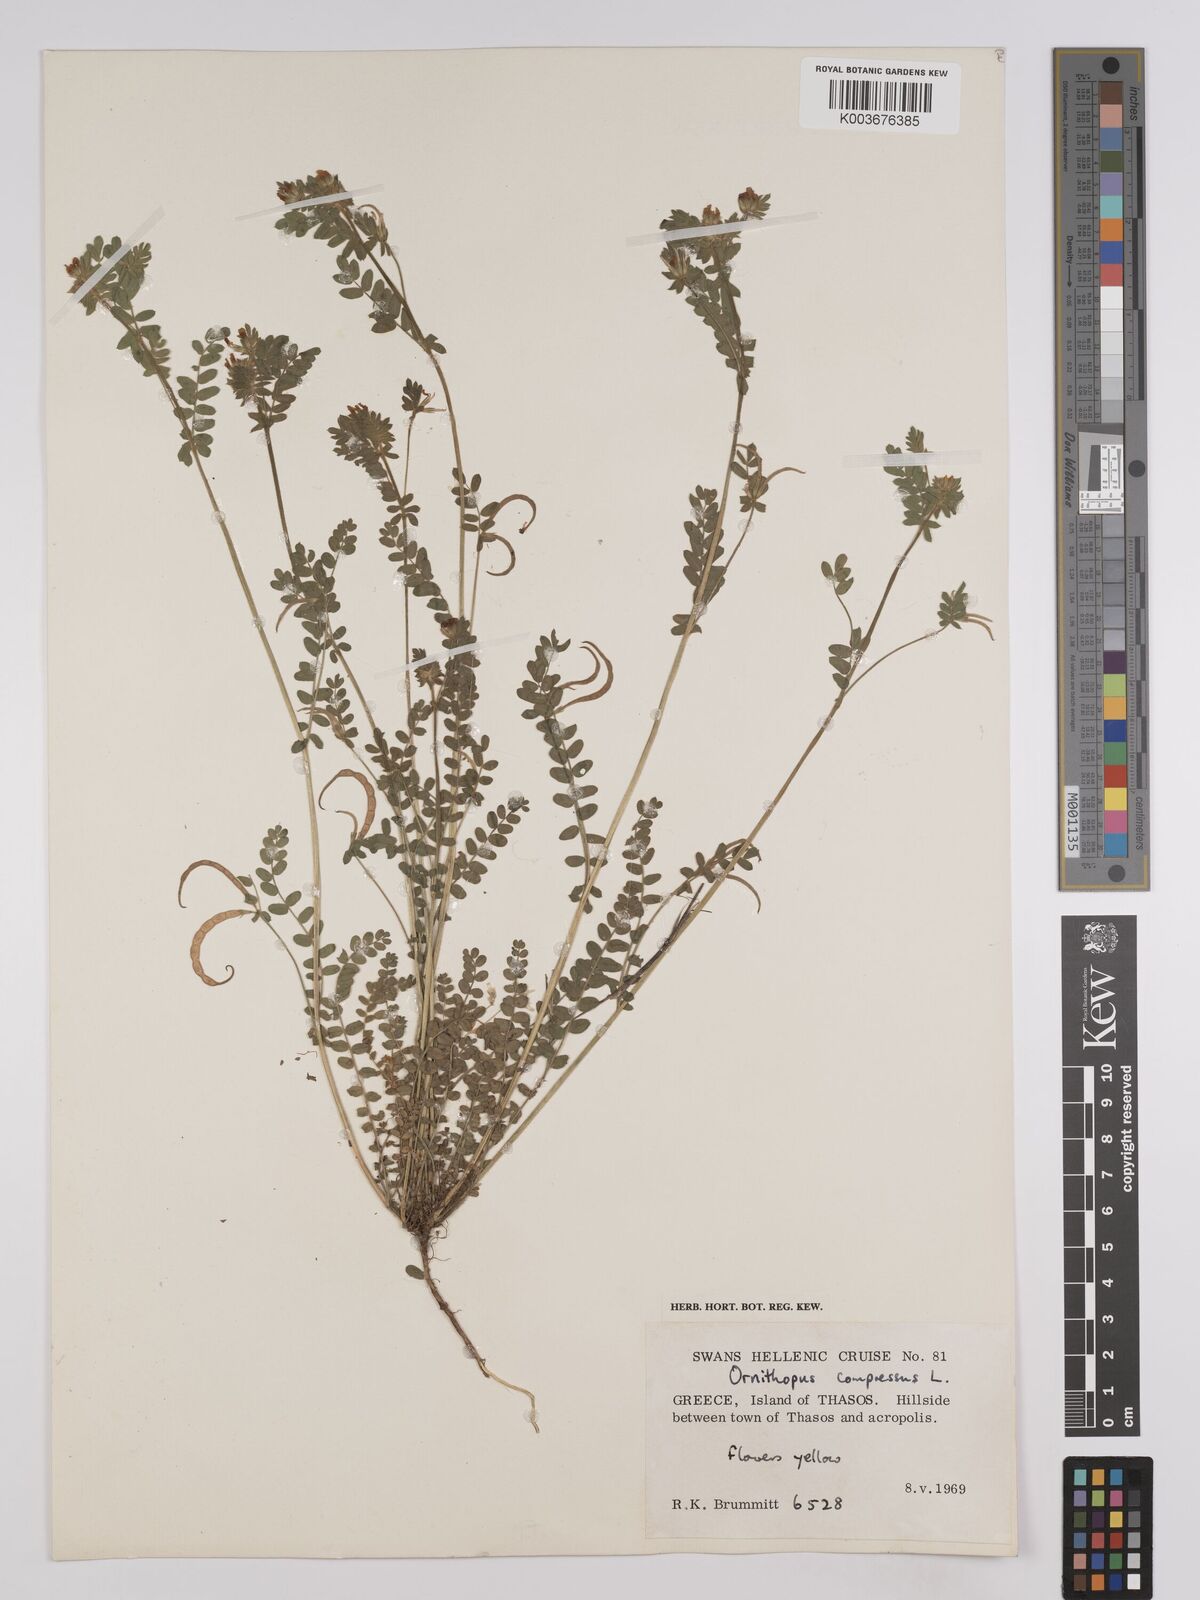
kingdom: Plantae
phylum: Tracheophyta
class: Magnoliopsida
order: Fabales
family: Fabaceae
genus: Ornithopus
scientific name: Ornithopus compressus
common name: Yellow serradella
